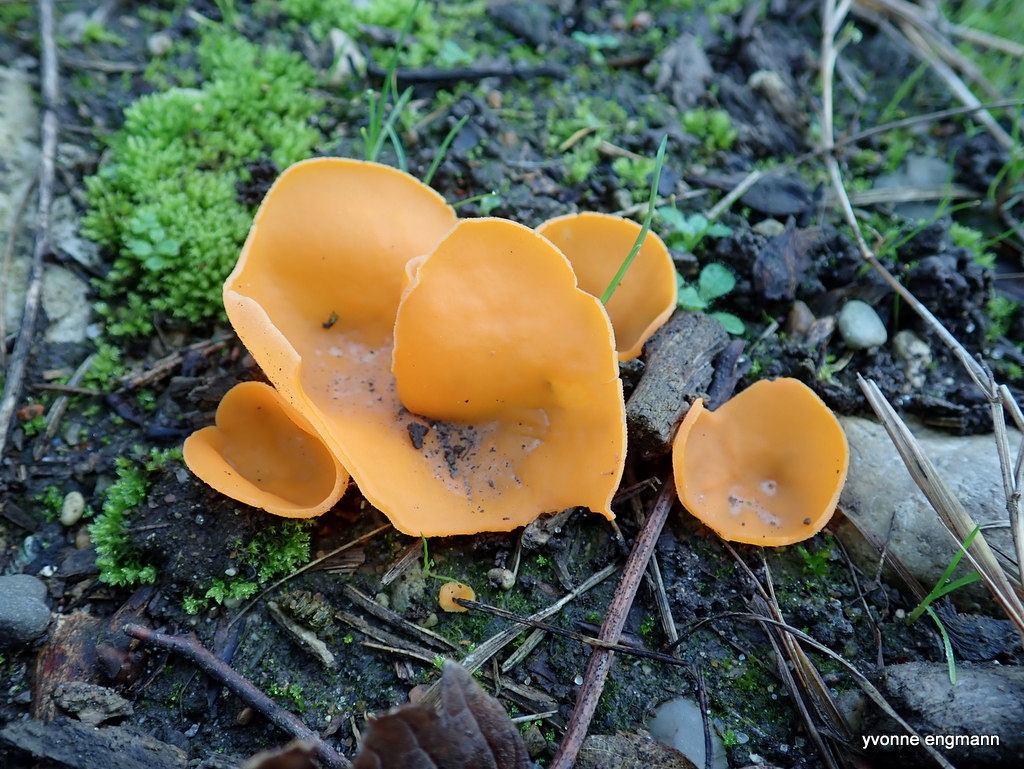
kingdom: Fungi
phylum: Ascomycota
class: Pezizomycetes
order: Pezizales
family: Pyronemataceae
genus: Aleuria
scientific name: Aleuria aurantia
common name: almindelig orangebæger
